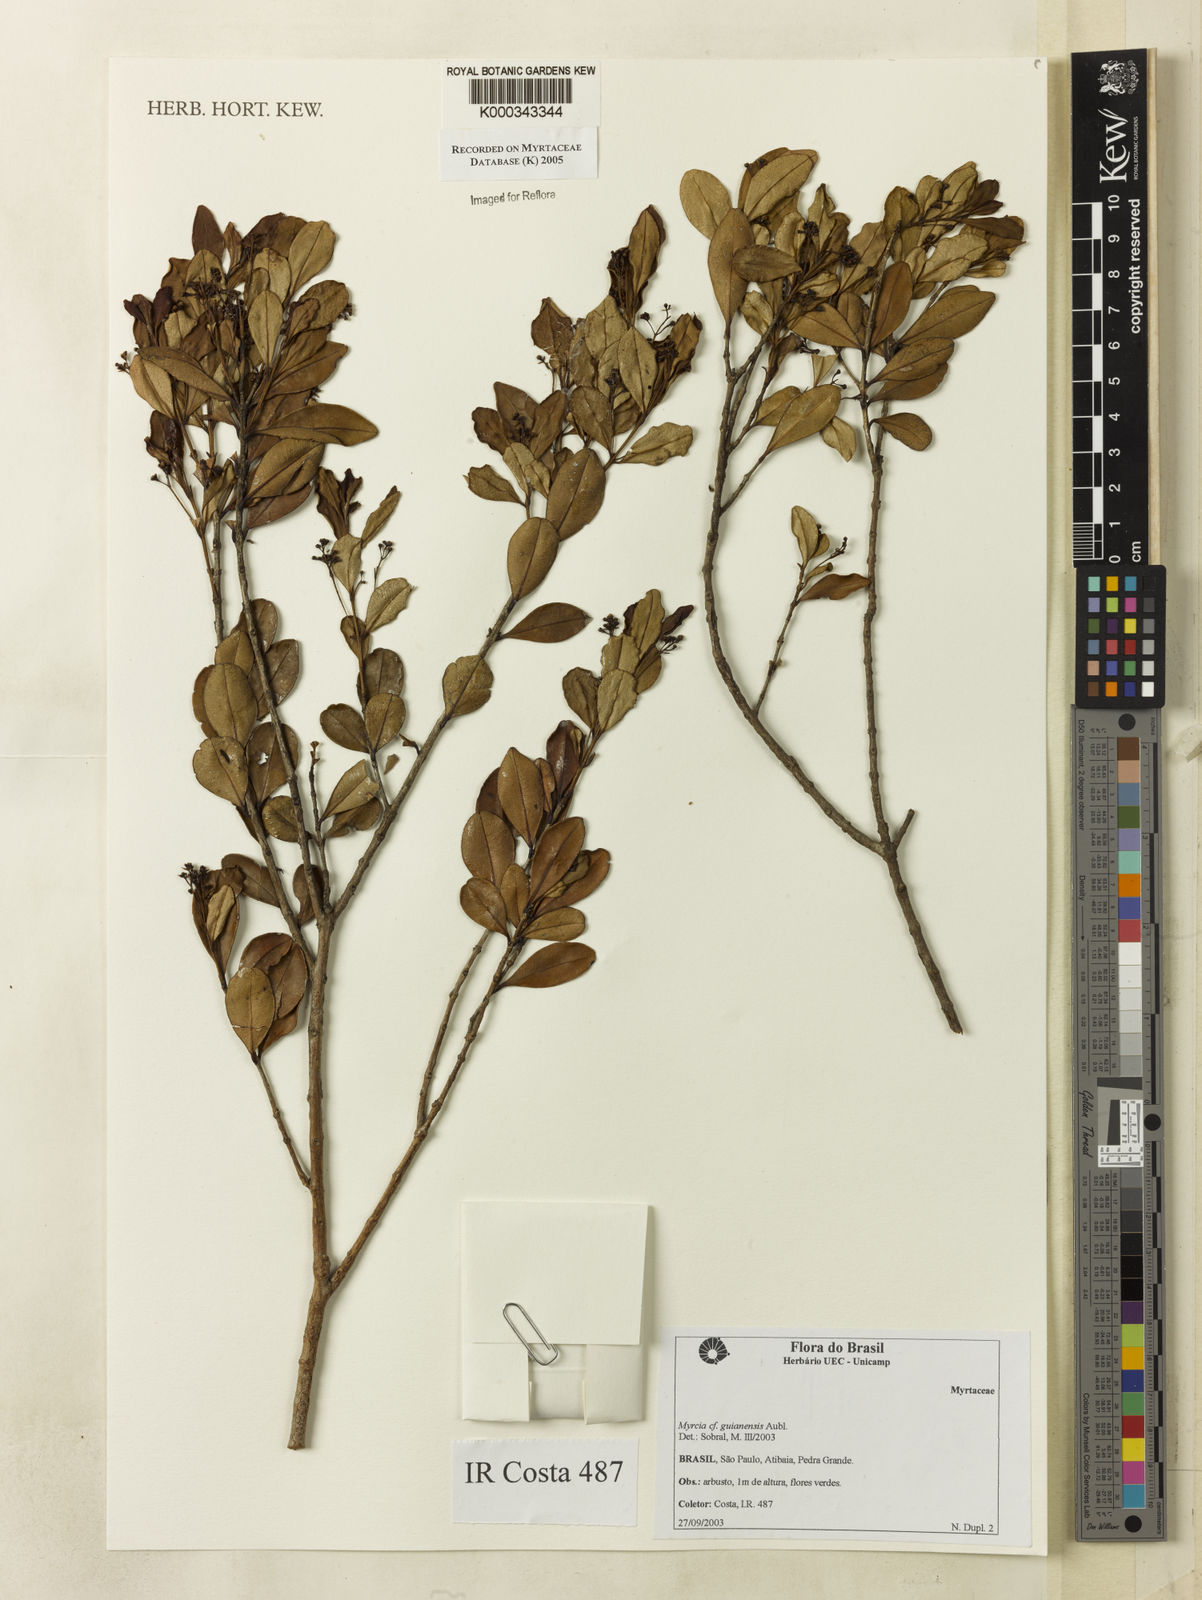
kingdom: Plantae
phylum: Tracheophyta
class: Magnoliopsida
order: Myrtales
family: Myrtaceae
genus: Myrcia
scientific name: Myrcia guianensis
